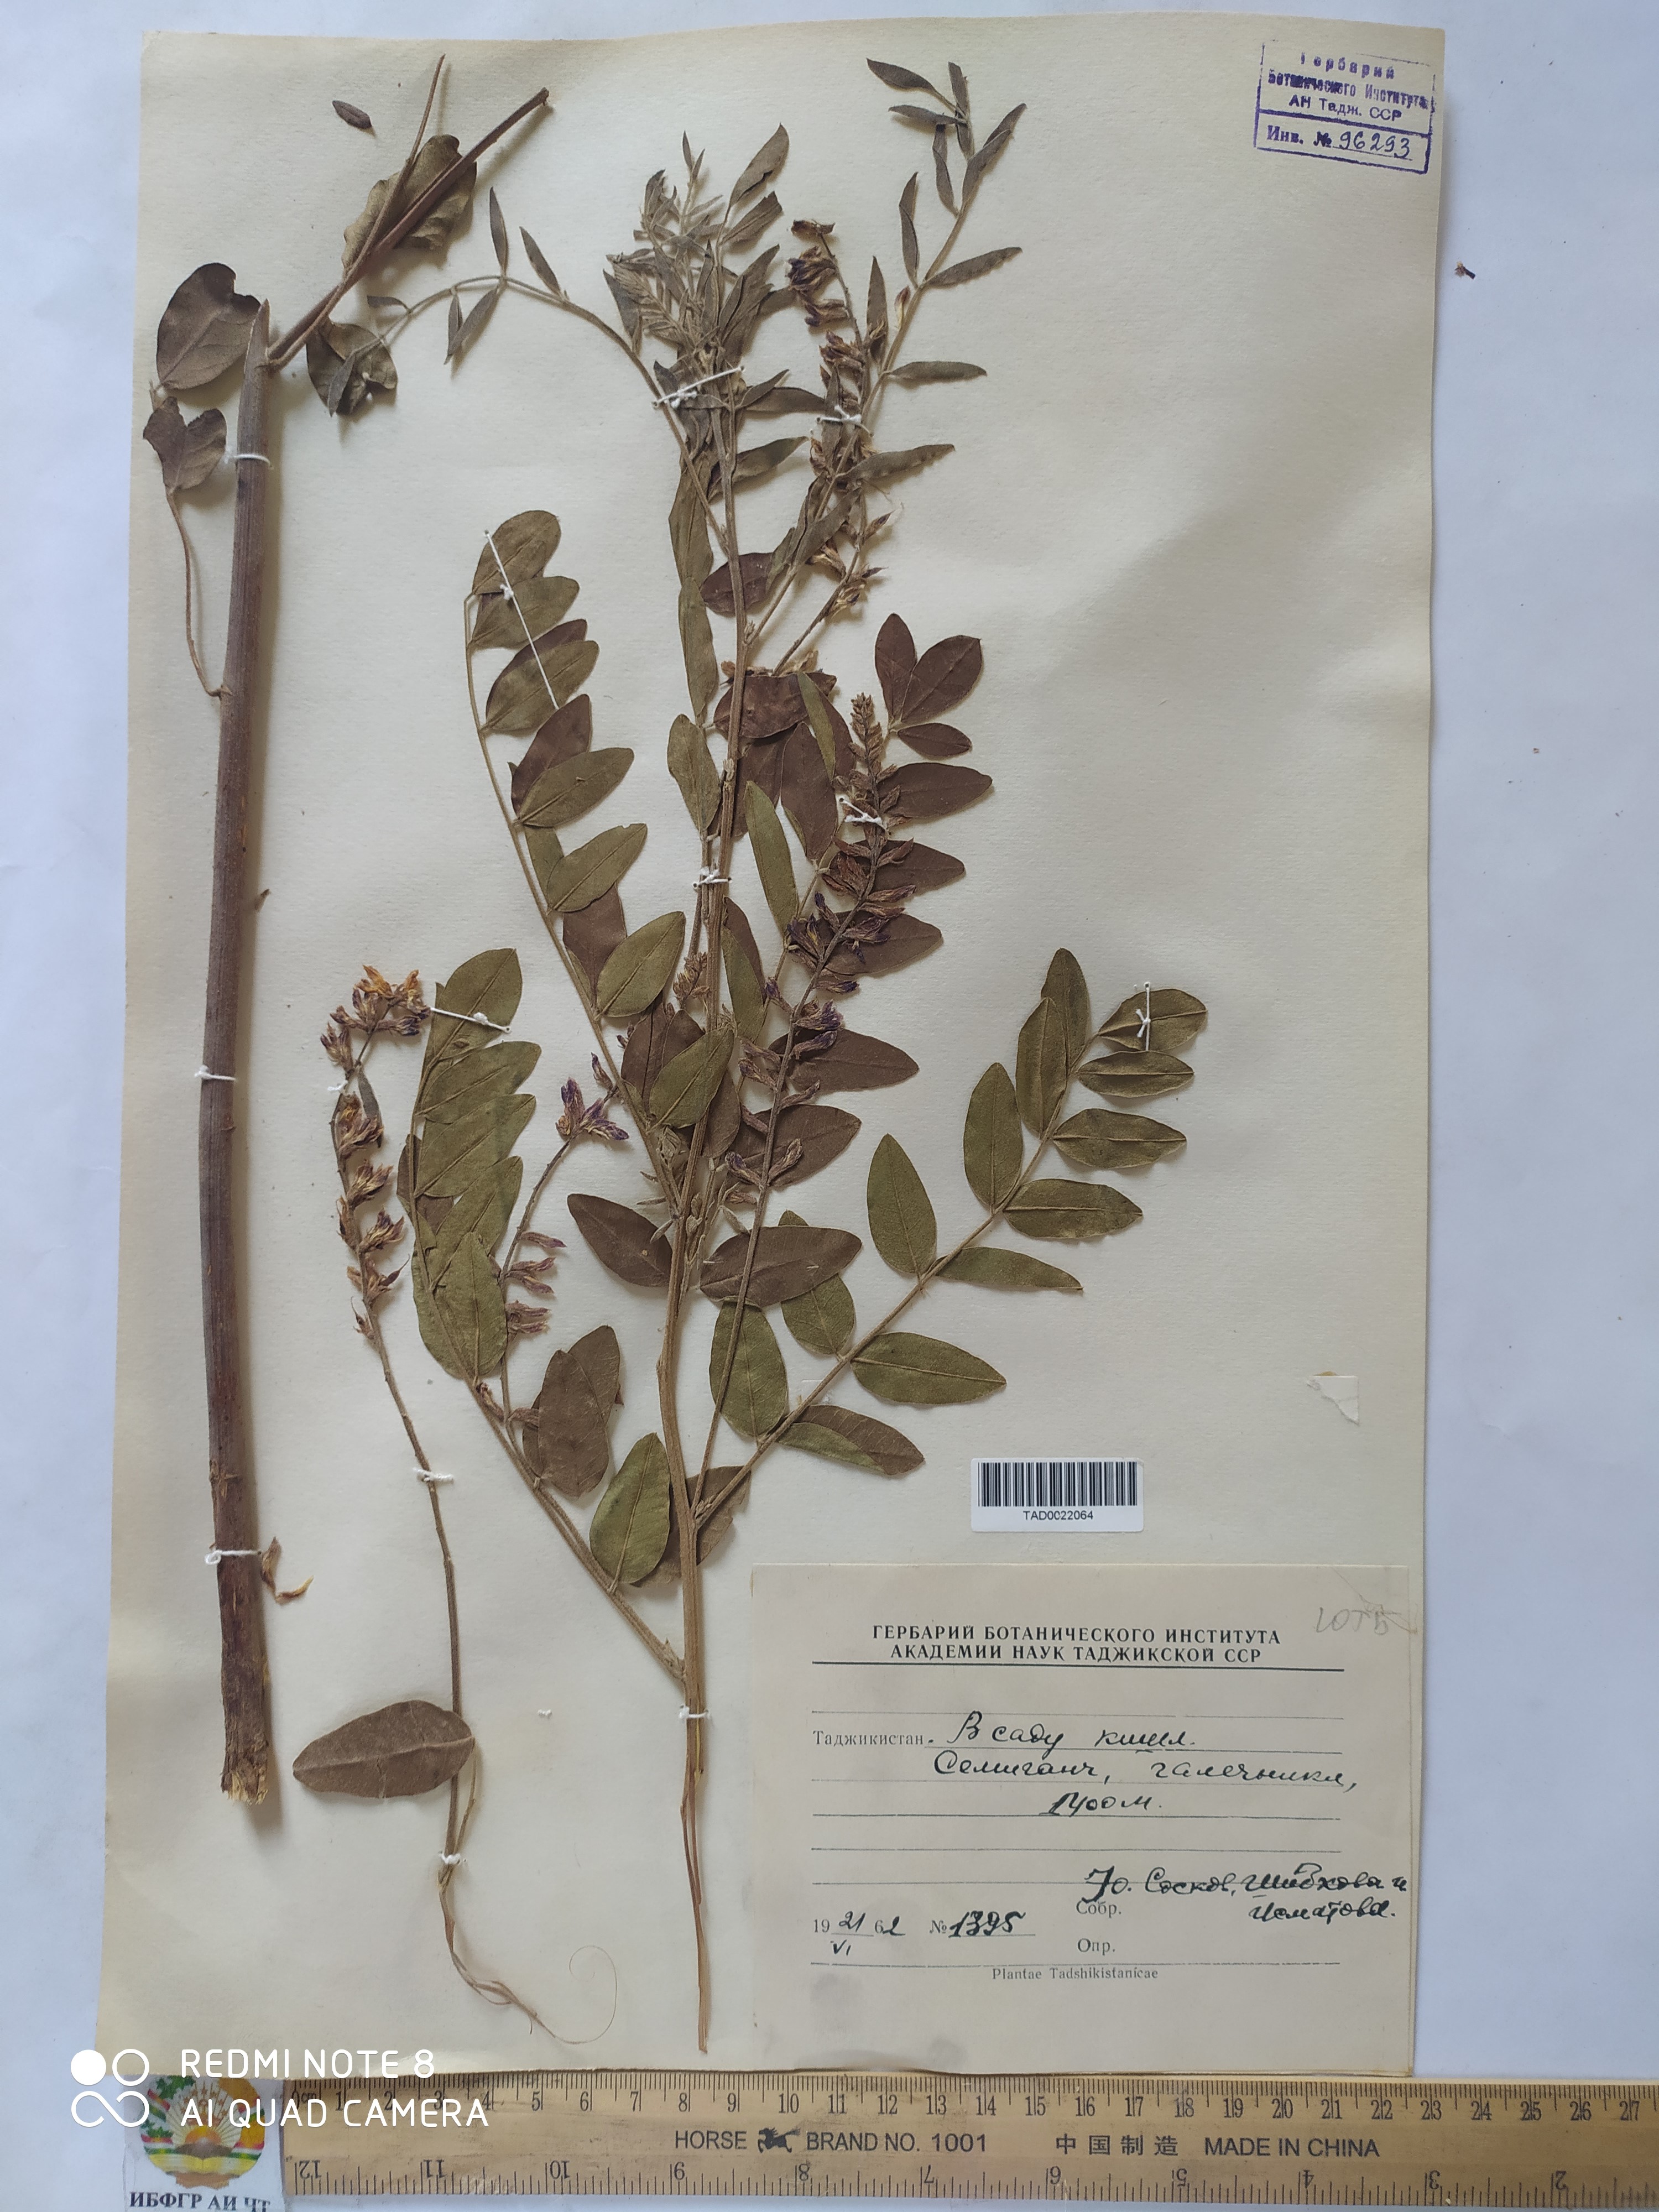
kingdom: Plantae
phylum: Tracheophyta
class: Magnoliopsida
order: Fabales
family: Fabaceae
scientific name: Fabaceae
